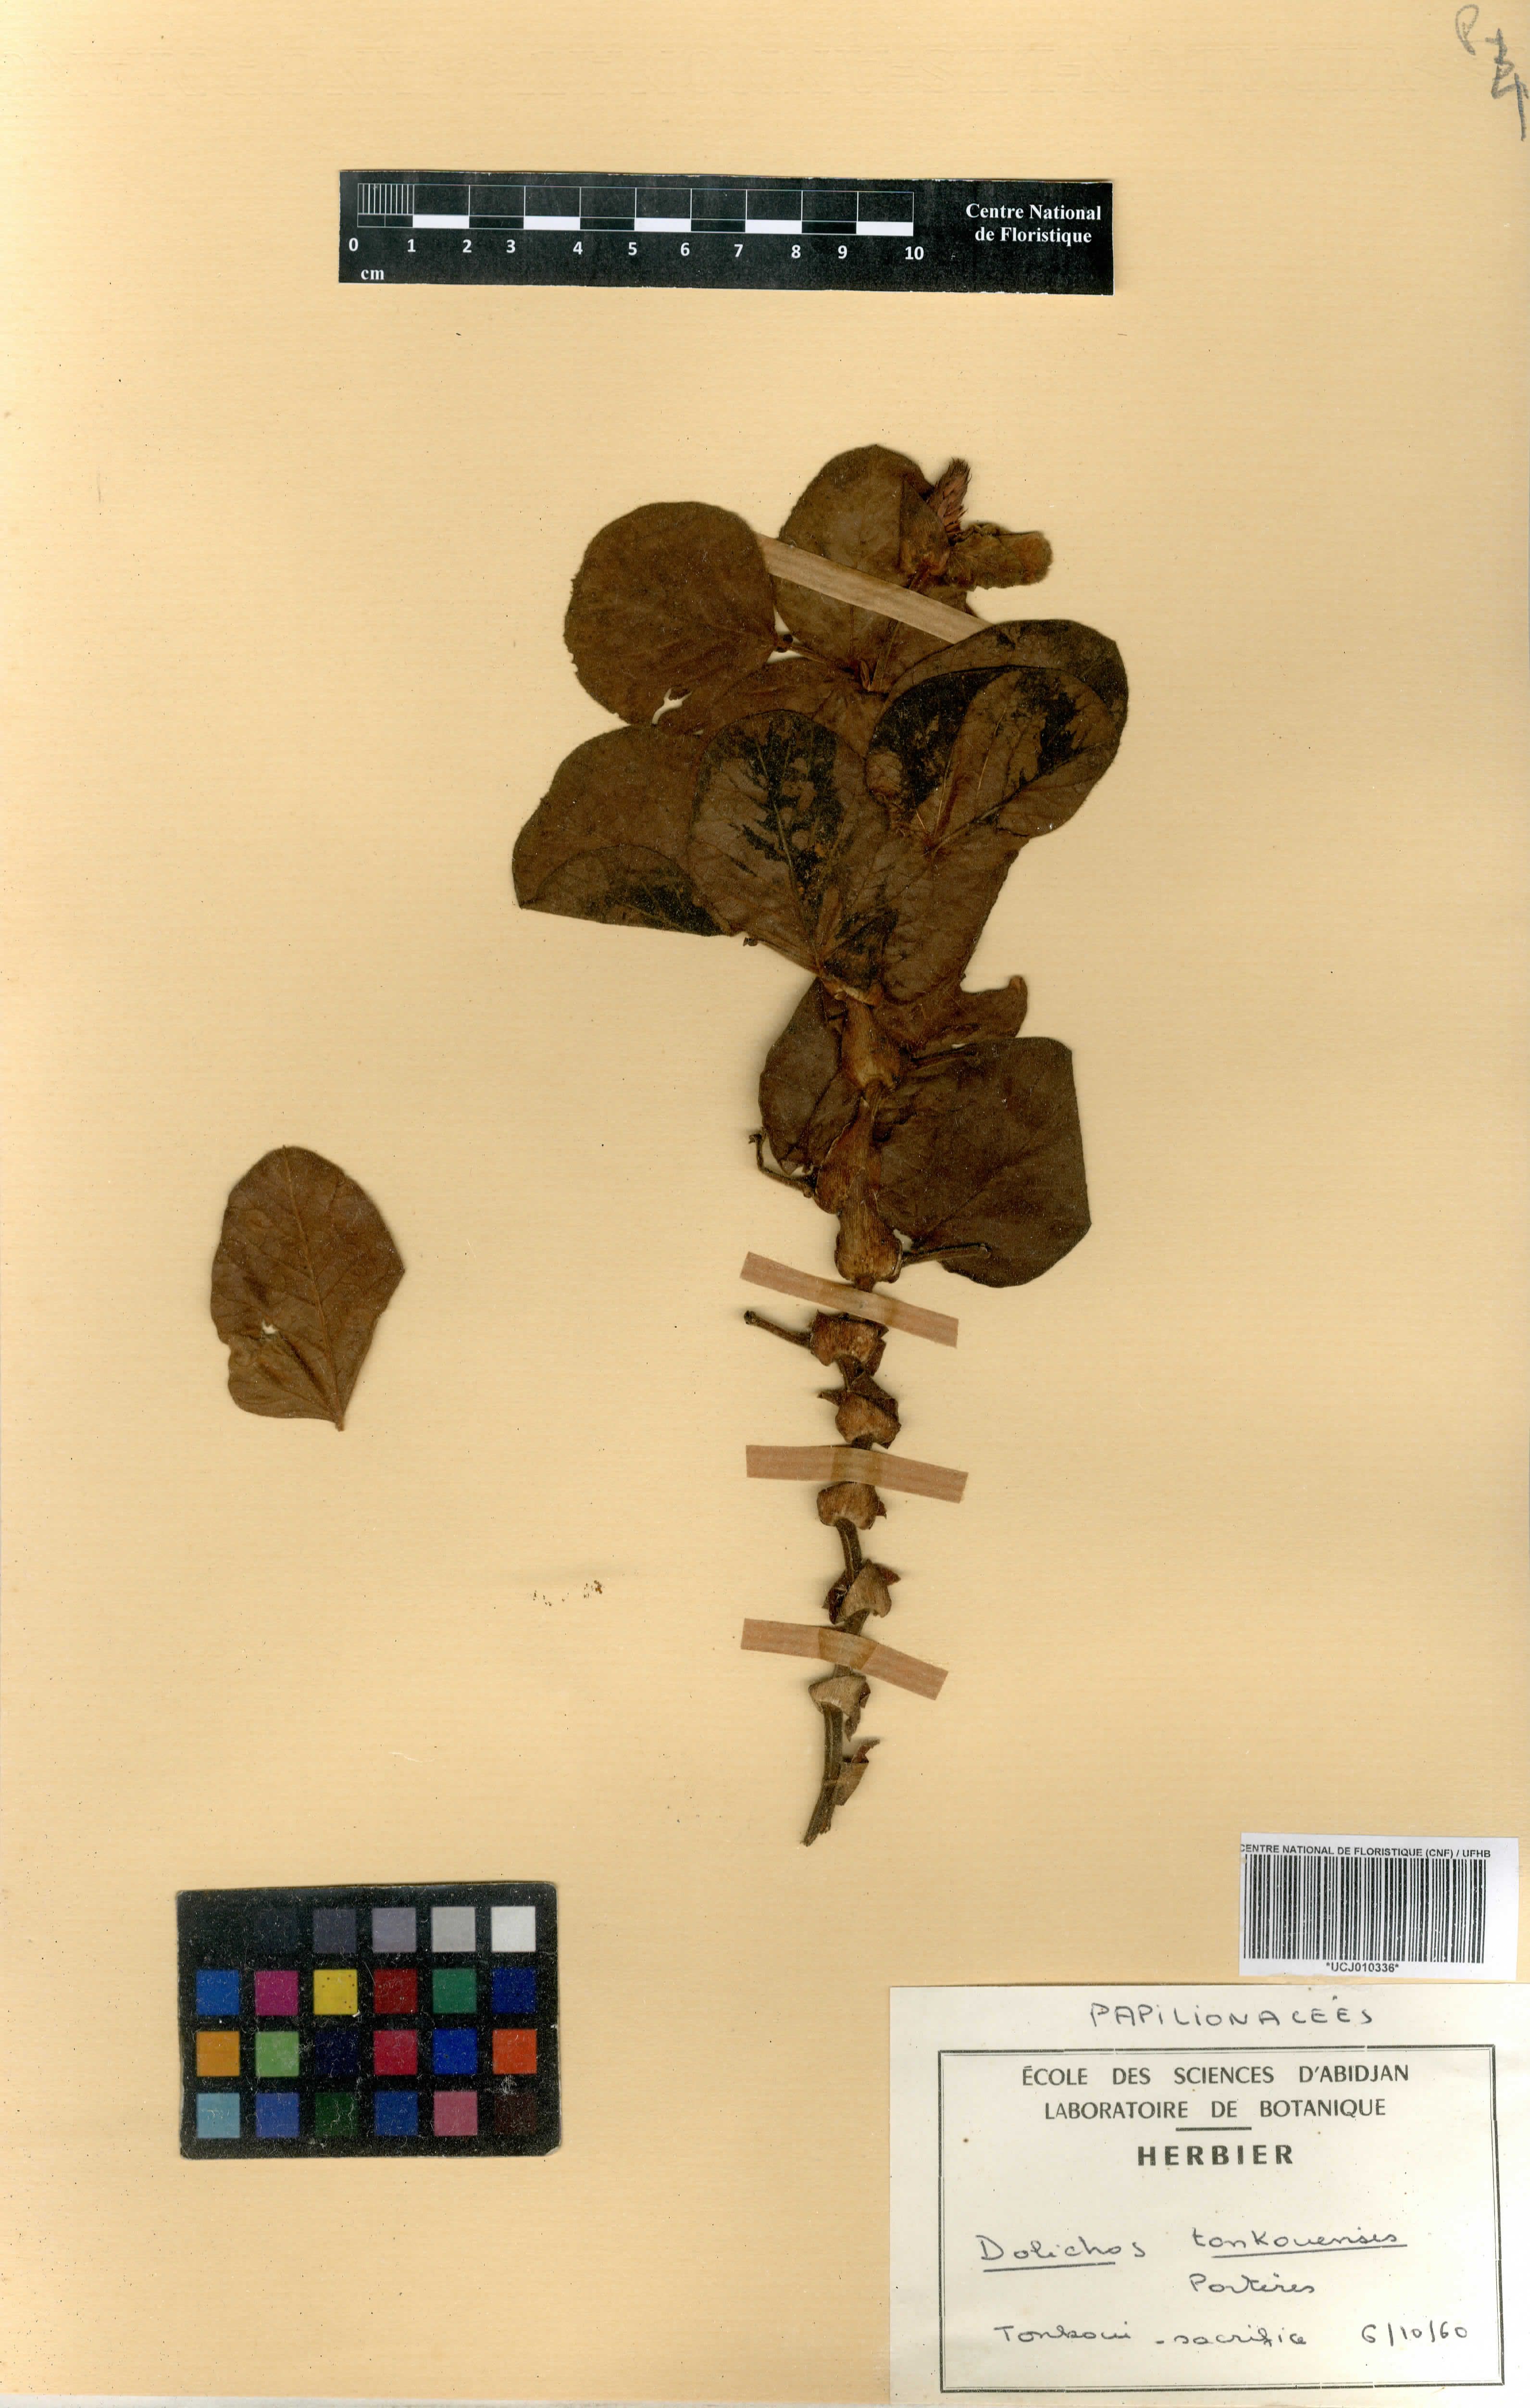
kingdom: Plantae
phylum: Tracheophyta
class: Magnoliopsida
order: Fabales
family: Fabaceae
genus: Dolichos
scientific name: Dolichos tonkouiensis
